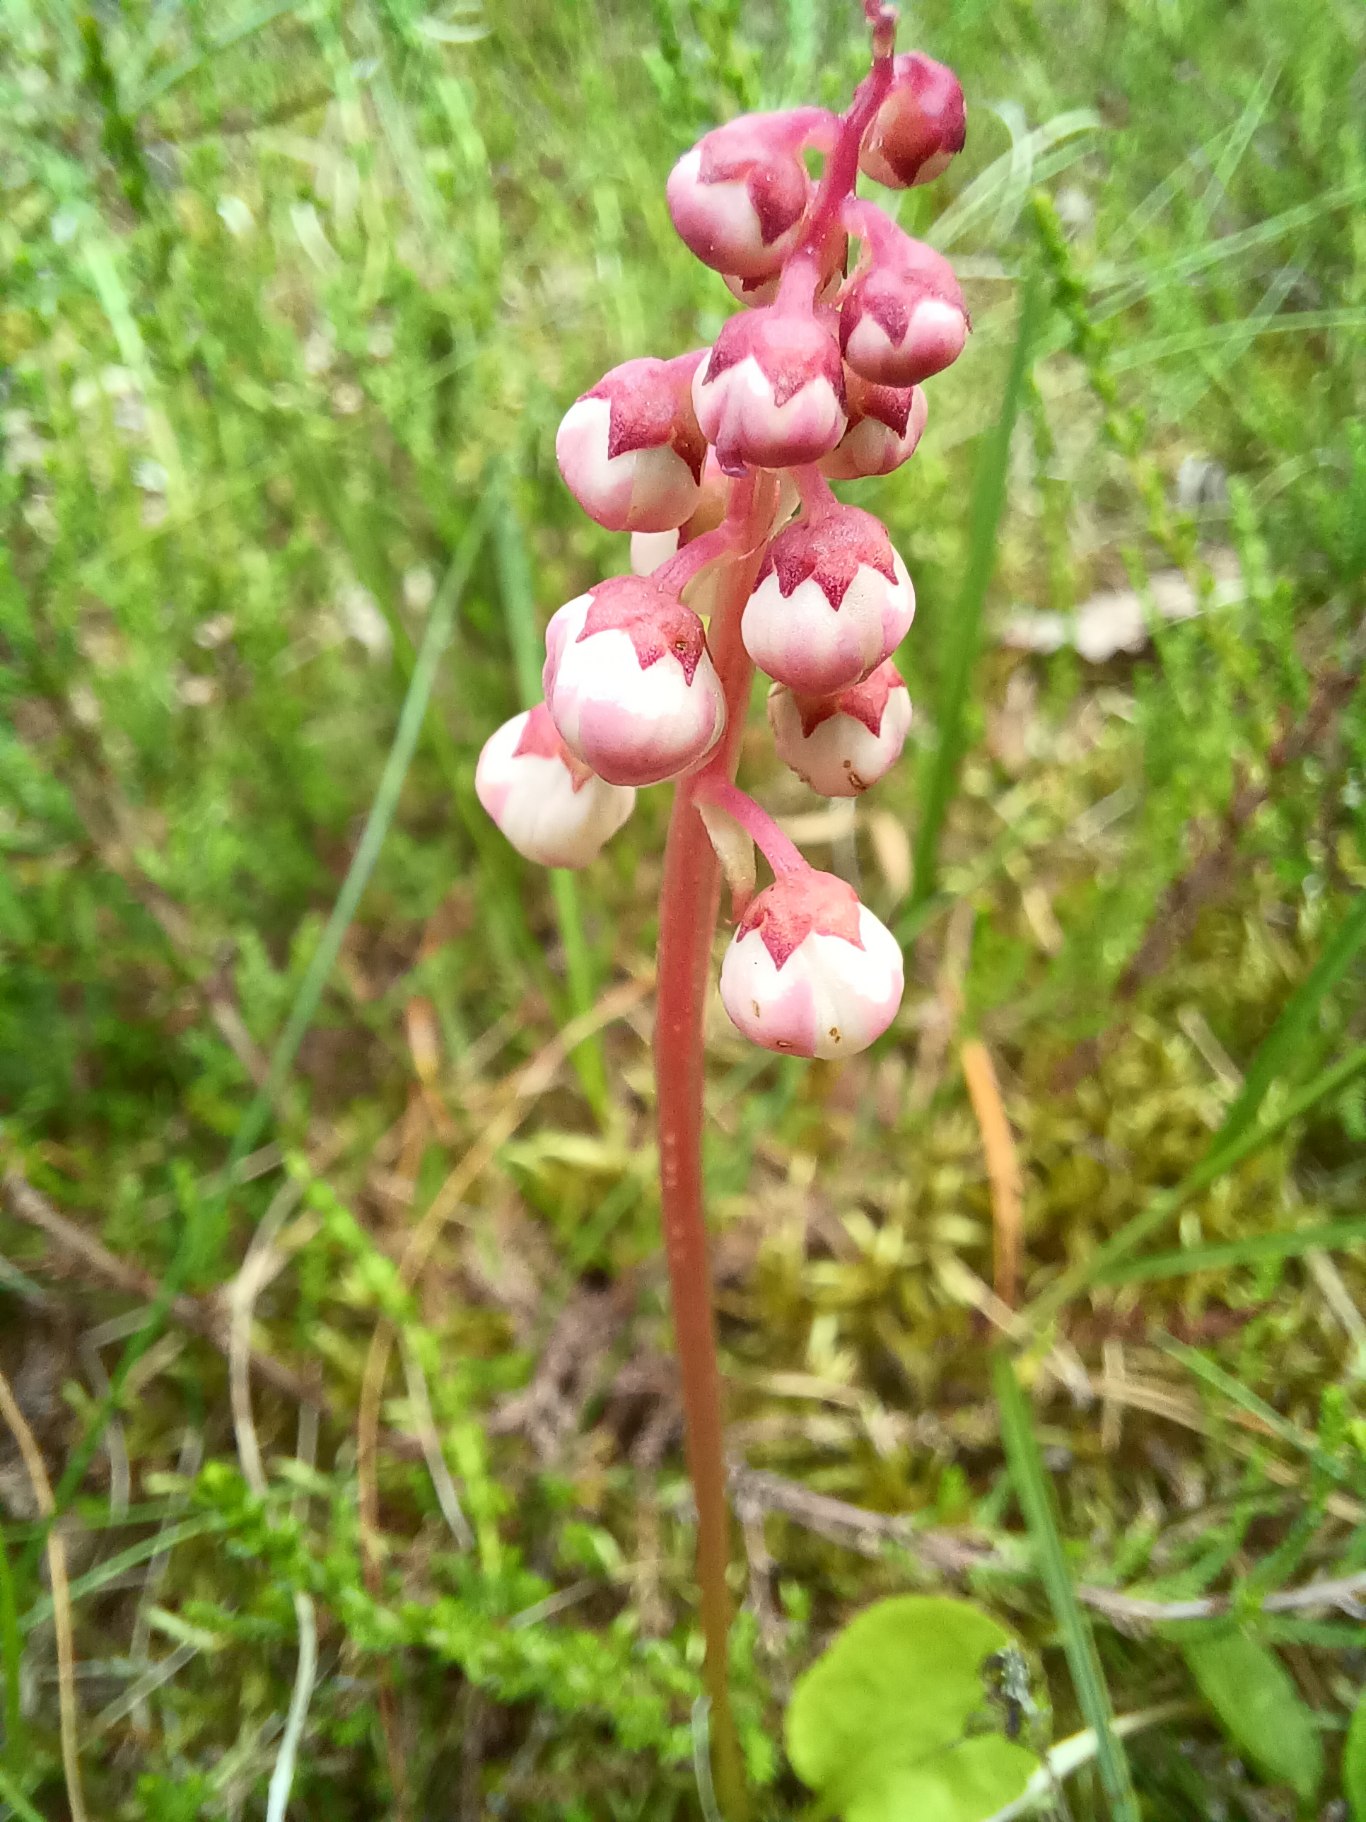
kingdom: Plantae
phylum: Tracheophyta
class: Magnoliopsida
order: Ericales
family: Ericaceae
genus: Pyrola
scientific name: Pyrola minor
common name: Liden vintergrøn
